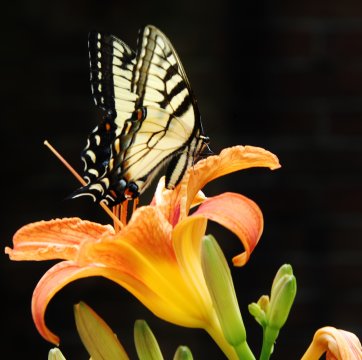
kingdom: Animalia
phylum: Arthropoda
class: Insecta
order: Lepidoptera
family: Papilionidae
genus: Pterourus
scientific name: Pterourus canadensis
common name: Canadian Tiger Swallowtail
